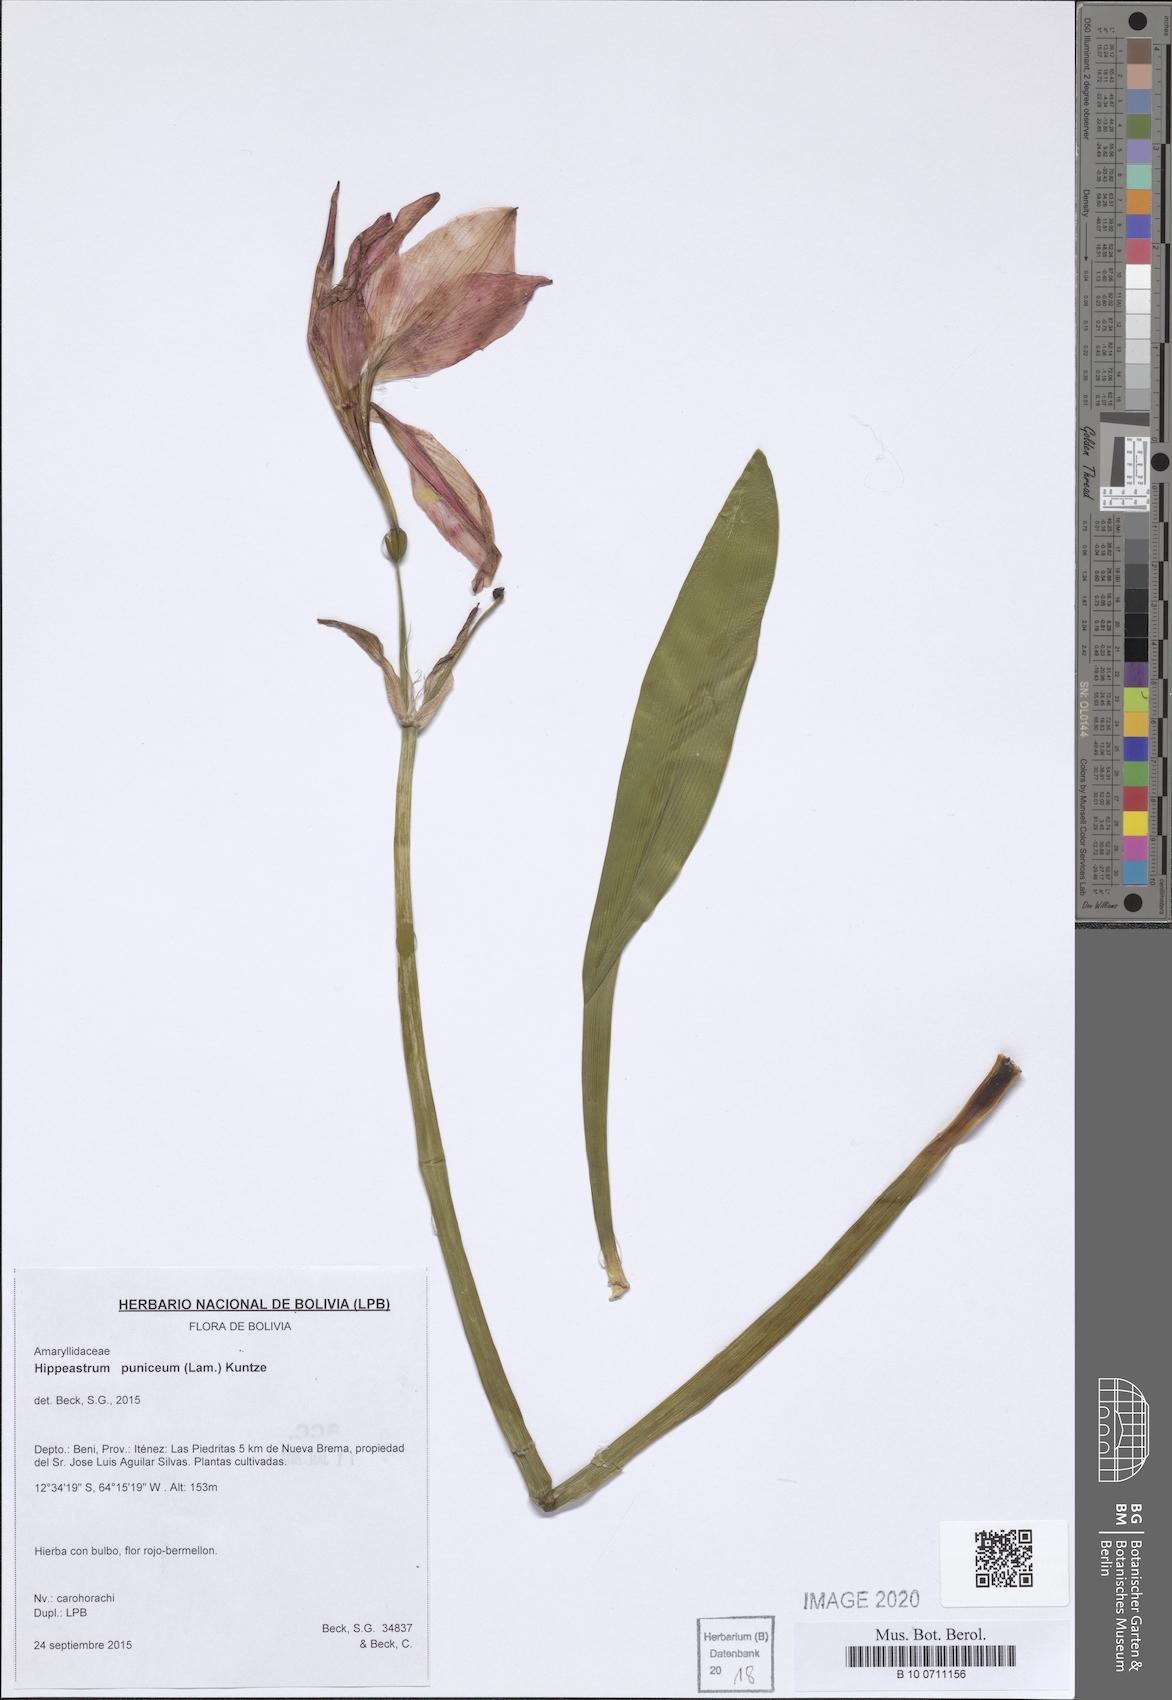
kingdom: Plantae
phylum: Tracheophyta
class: Liliopsida
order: Asparagales
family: Amaryllidaceae
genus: Hippeastrum
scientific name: Hippeastrum puniceum
